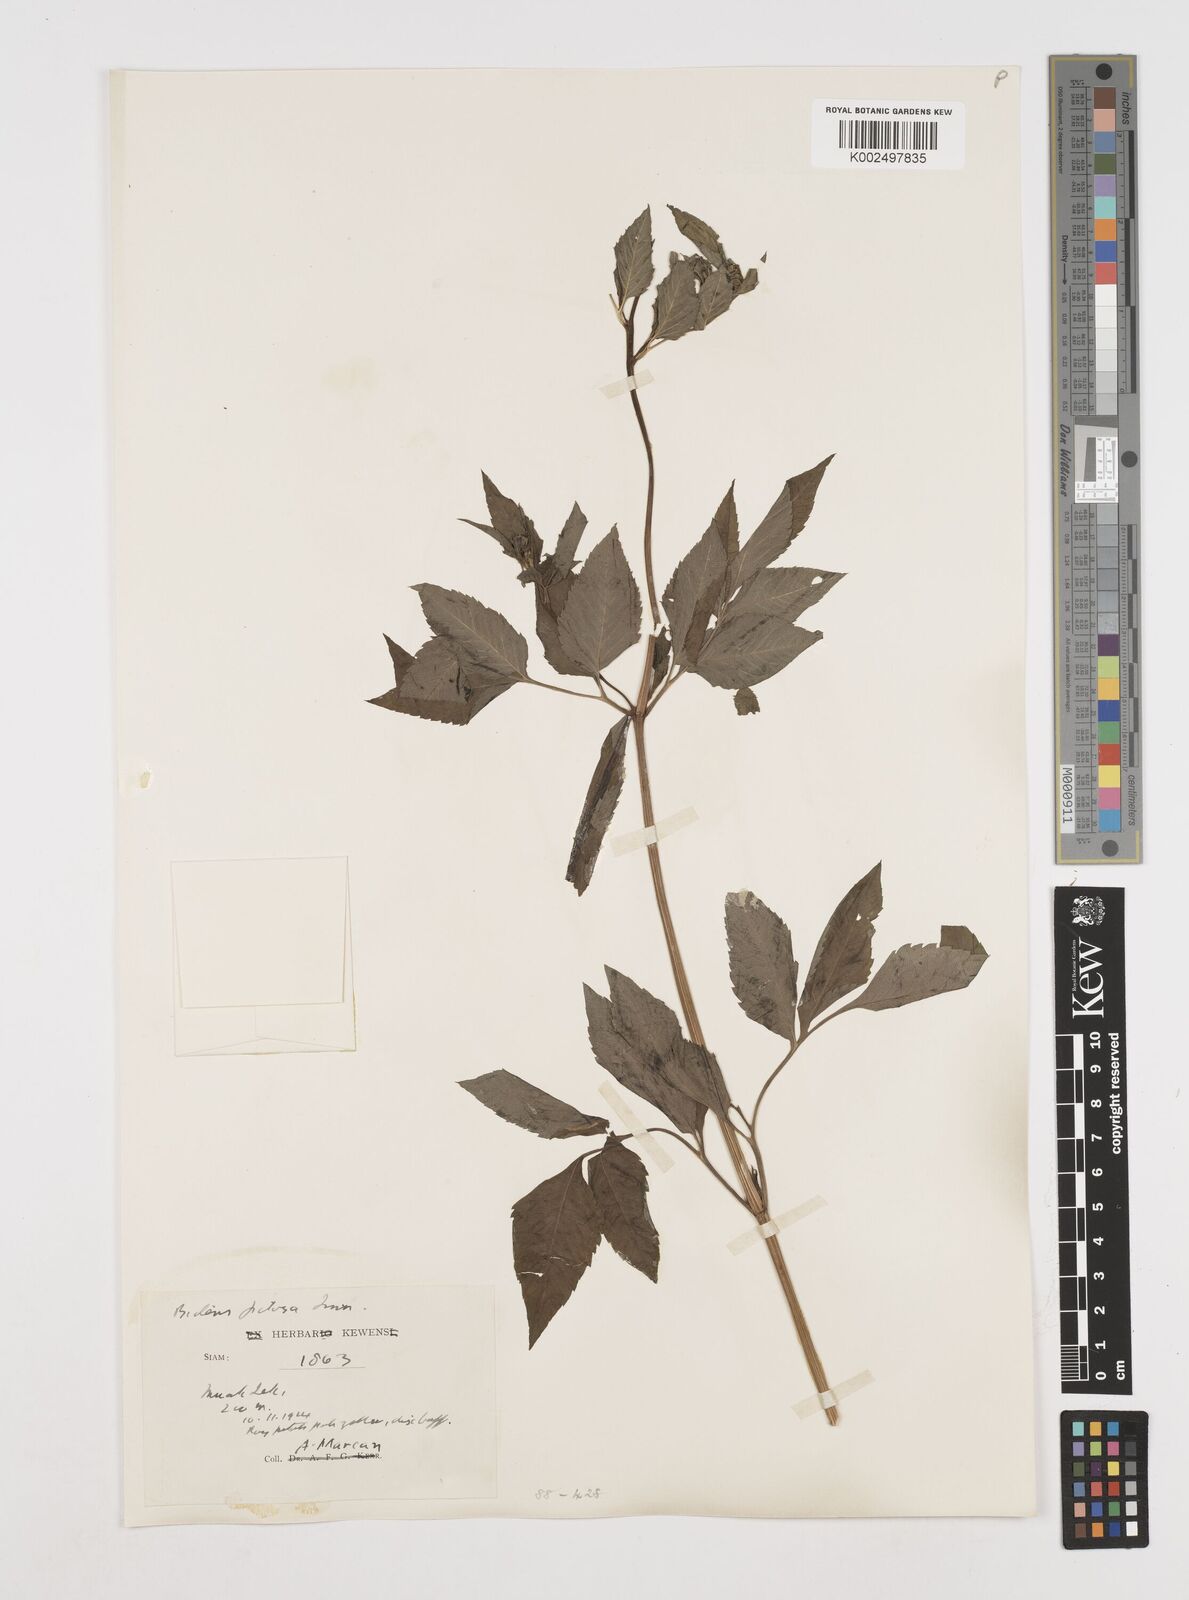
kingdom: Plantae
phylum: Tracheophyta
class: Magnoliopsida
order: Asterales
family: Asteraceae
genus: Bidens
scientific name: Bidens pilosa
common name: Black-jack
